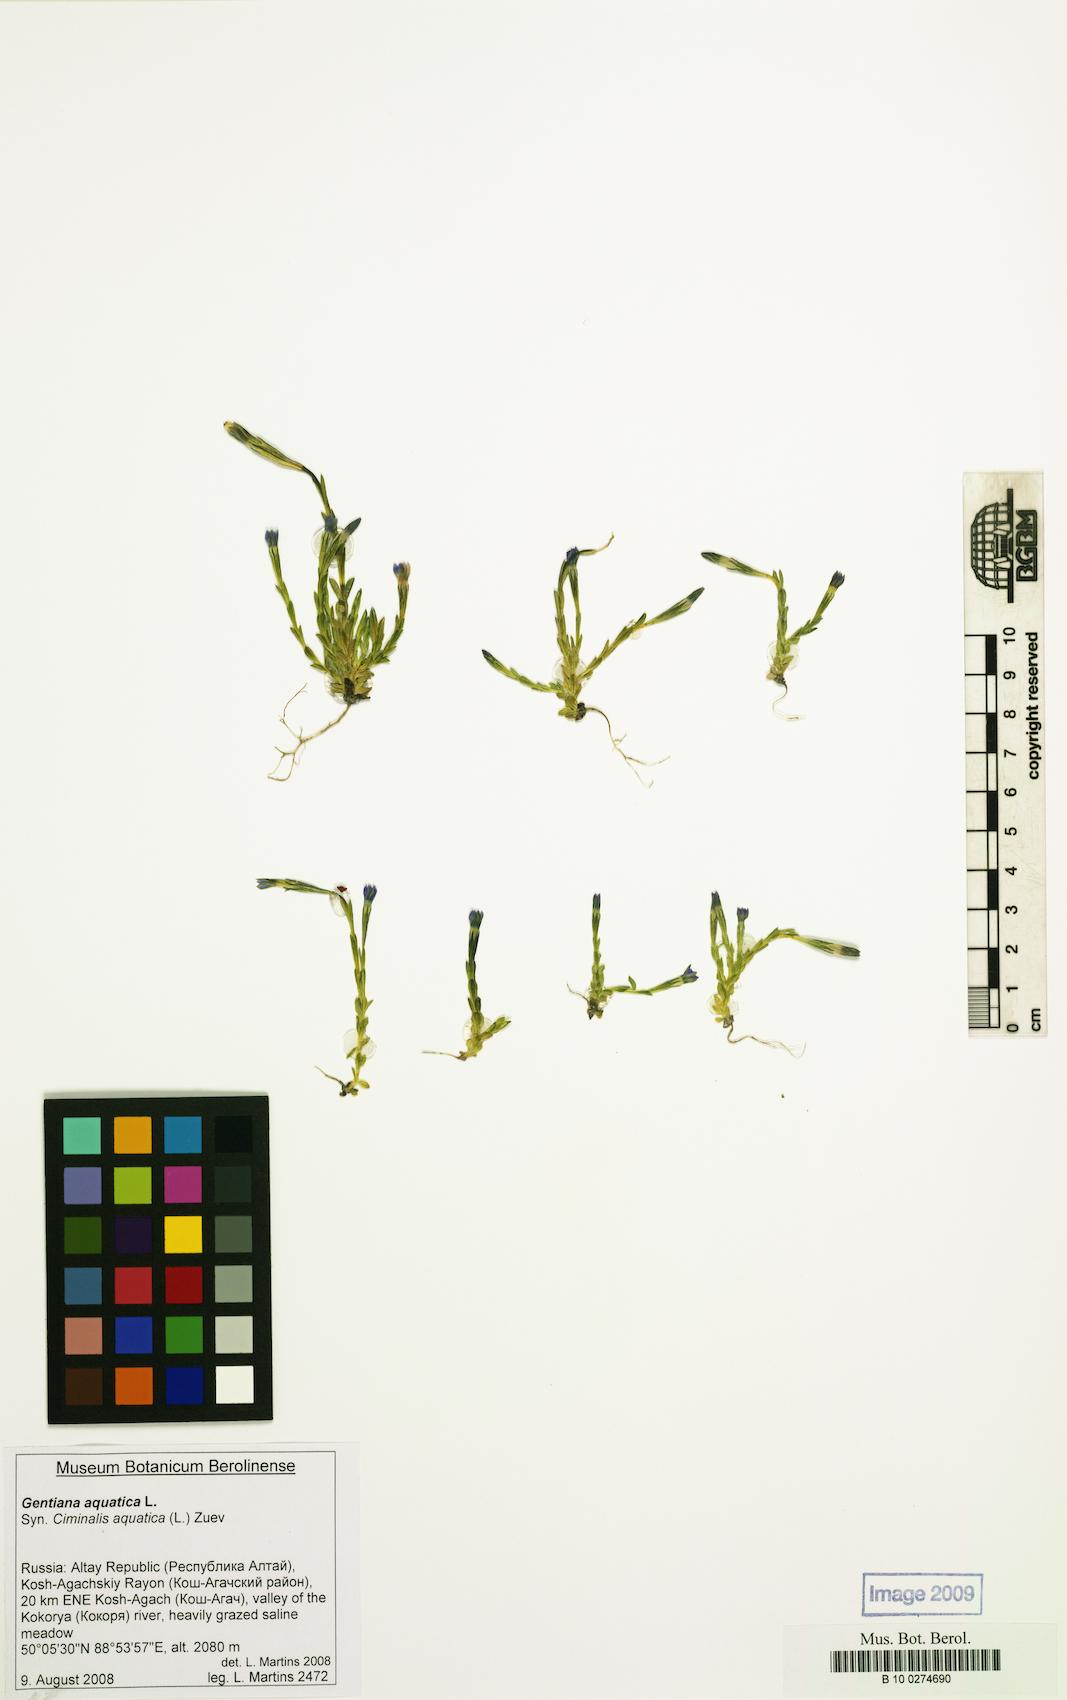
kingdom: Plantae
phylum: Tracheophyta
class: Magnoliopsida
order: Gentianales
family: Gentianaceae
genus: Gentiana
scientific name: Gentiana aquatica
